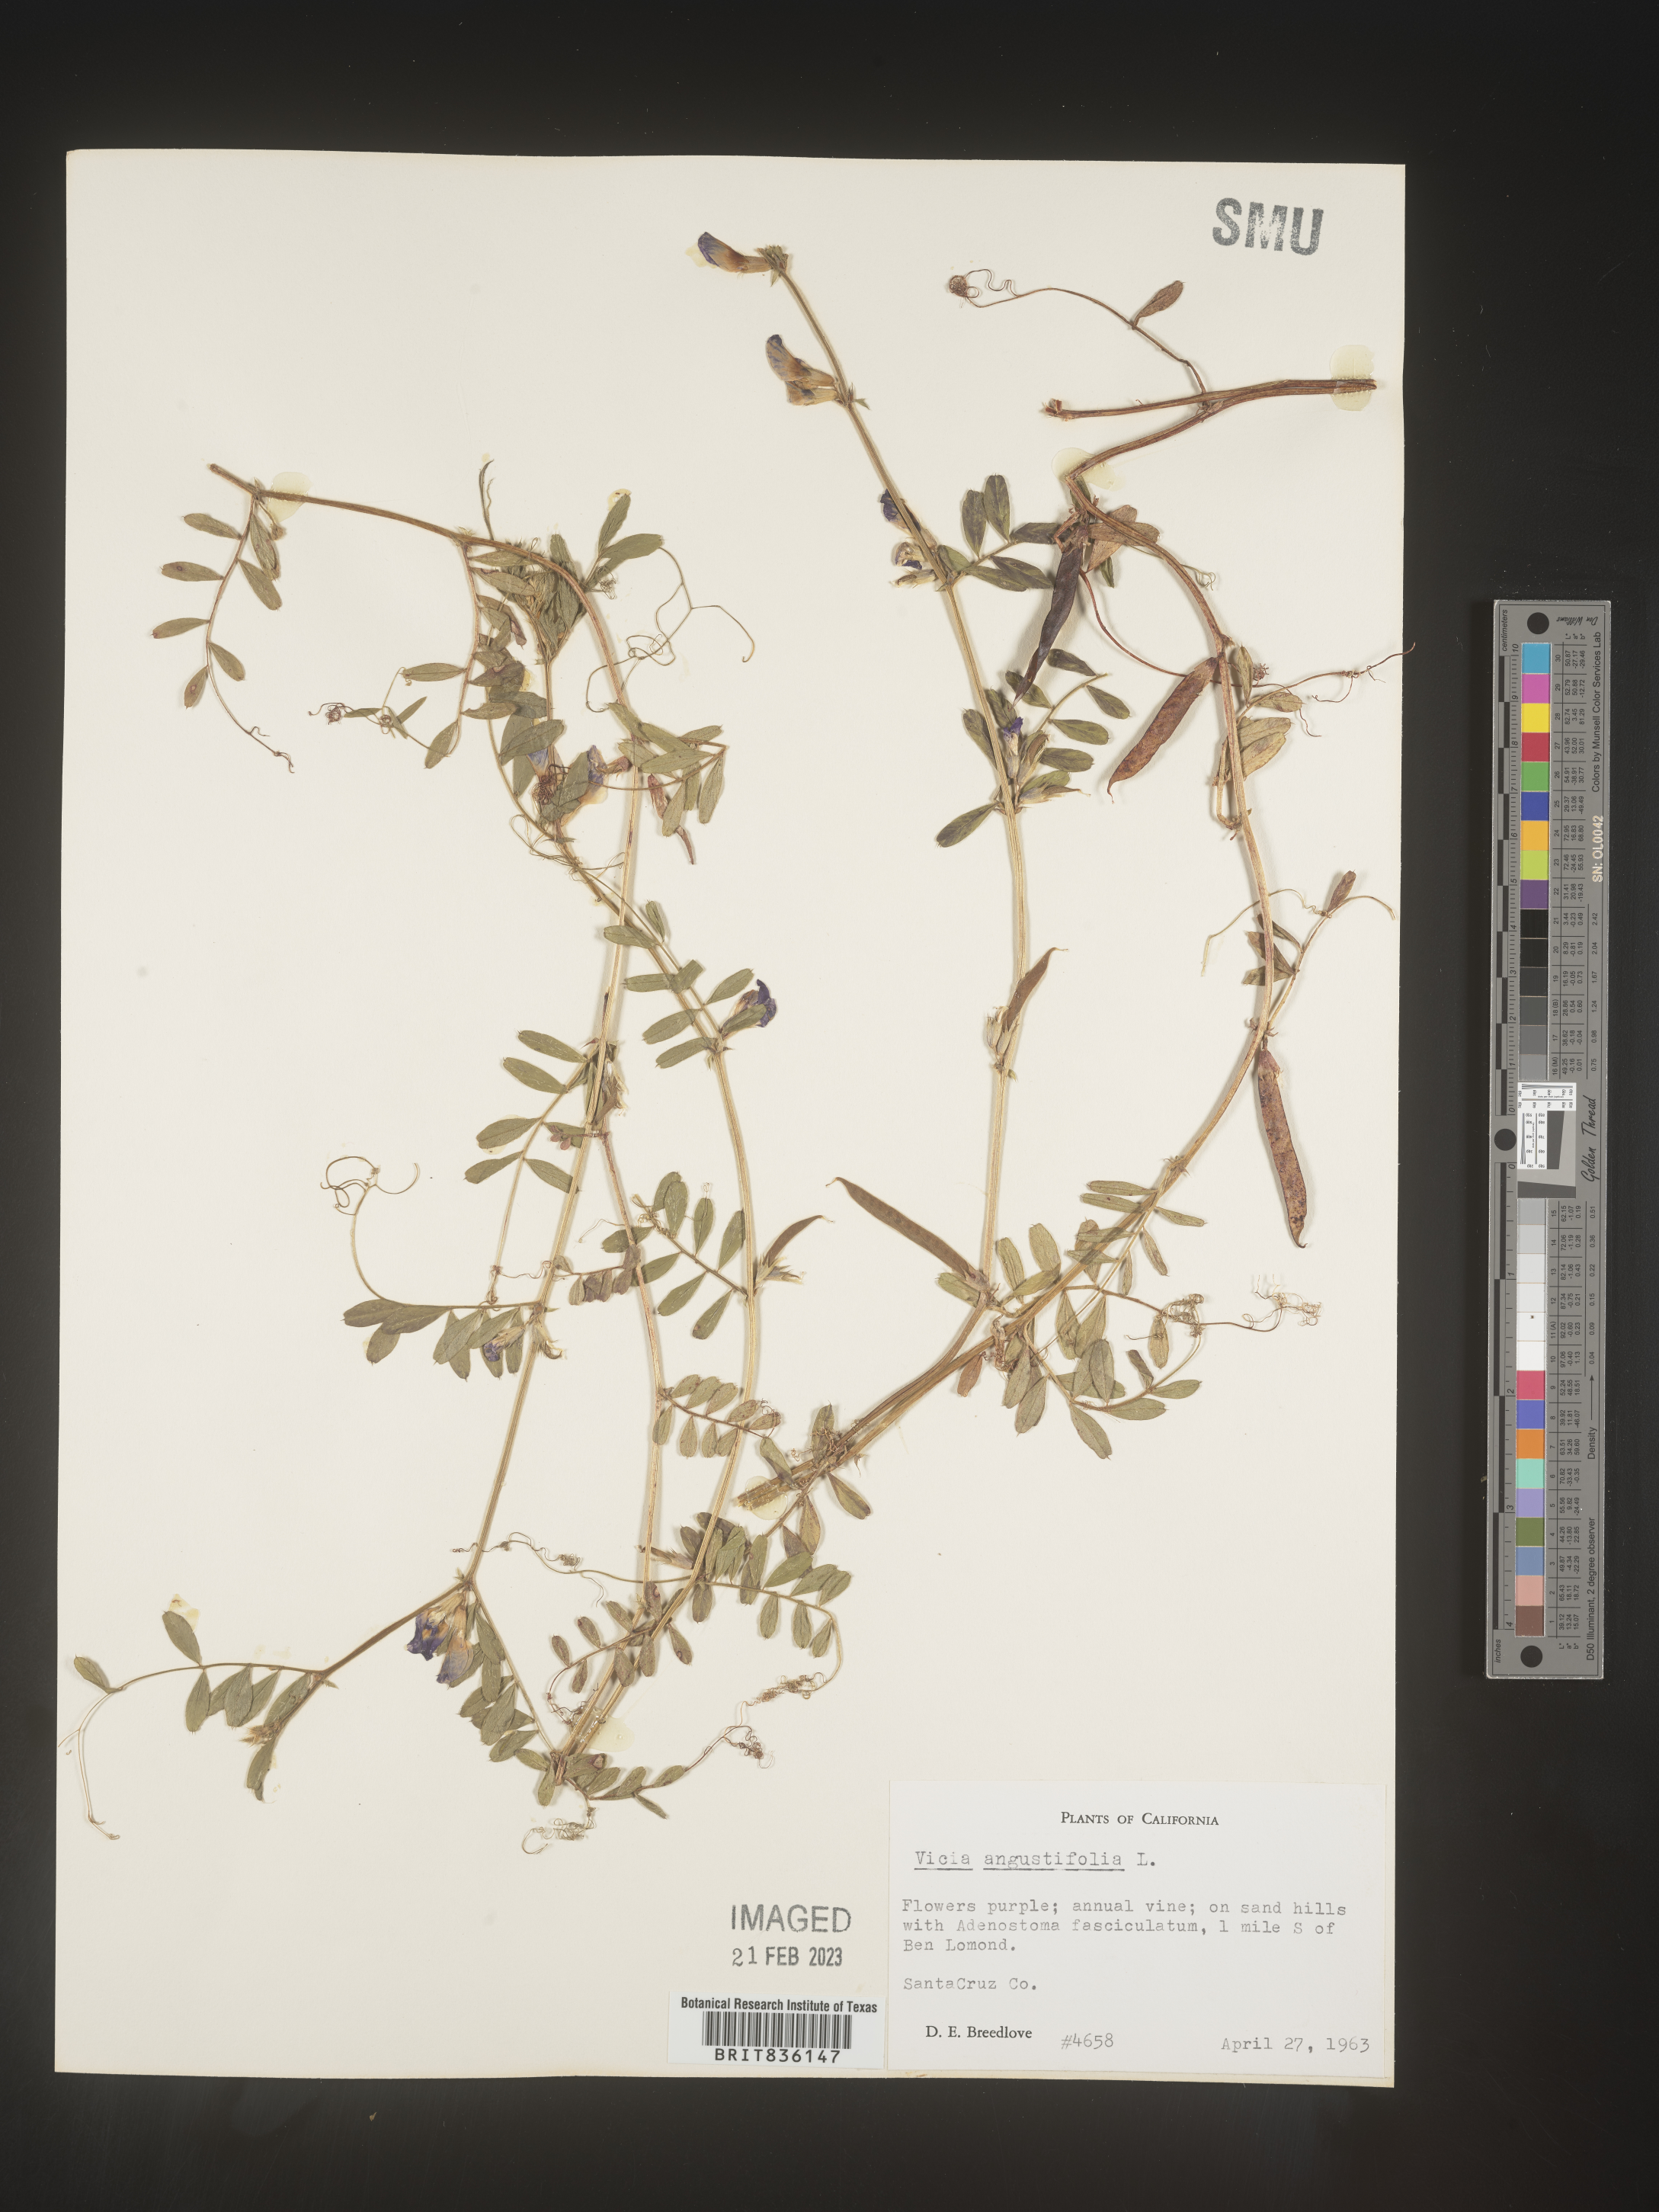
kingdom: Plantae
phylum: Tracheophyta
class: Magnoliopsida
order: Fabales
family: Fabaceae
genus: Vicia
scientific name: Vicia sativa
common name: Garden vetch
